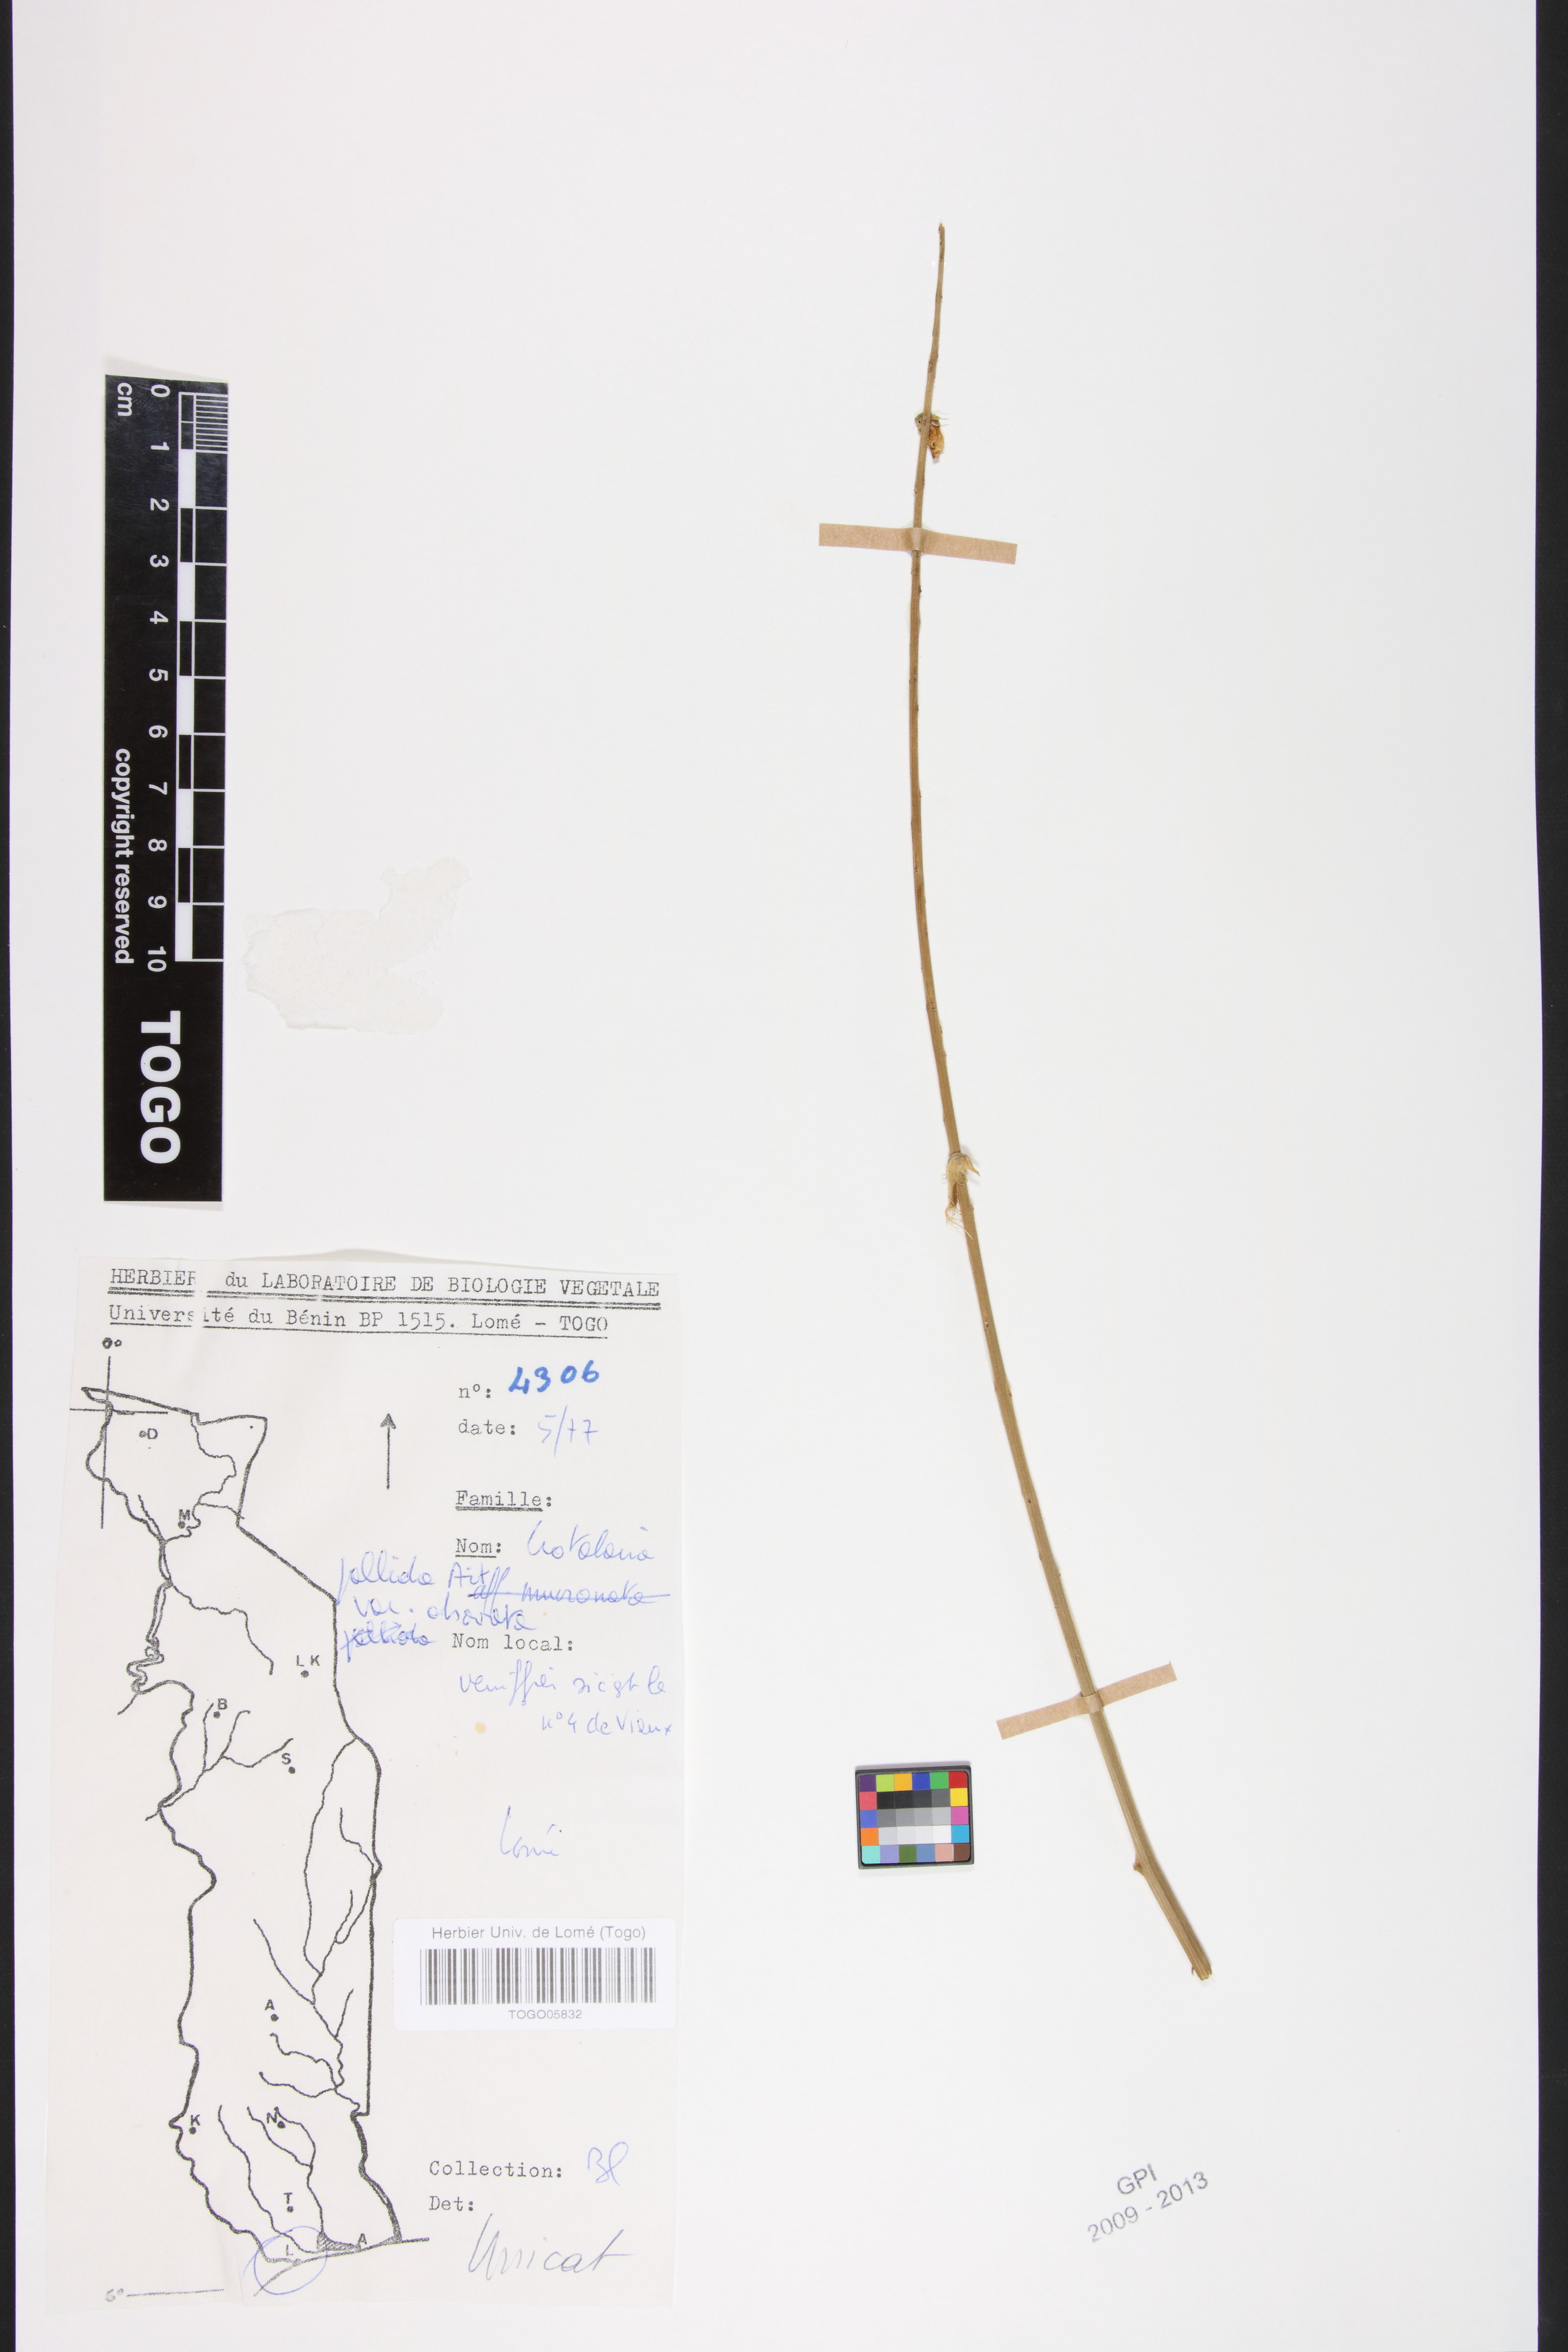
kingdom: Plantae
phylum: Tracheophyta
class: Magnoliopsida
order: Fabales
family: Fabaceae
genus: Crotalaria
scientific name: Crotalaria pallida
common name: Smooth rattlebox
